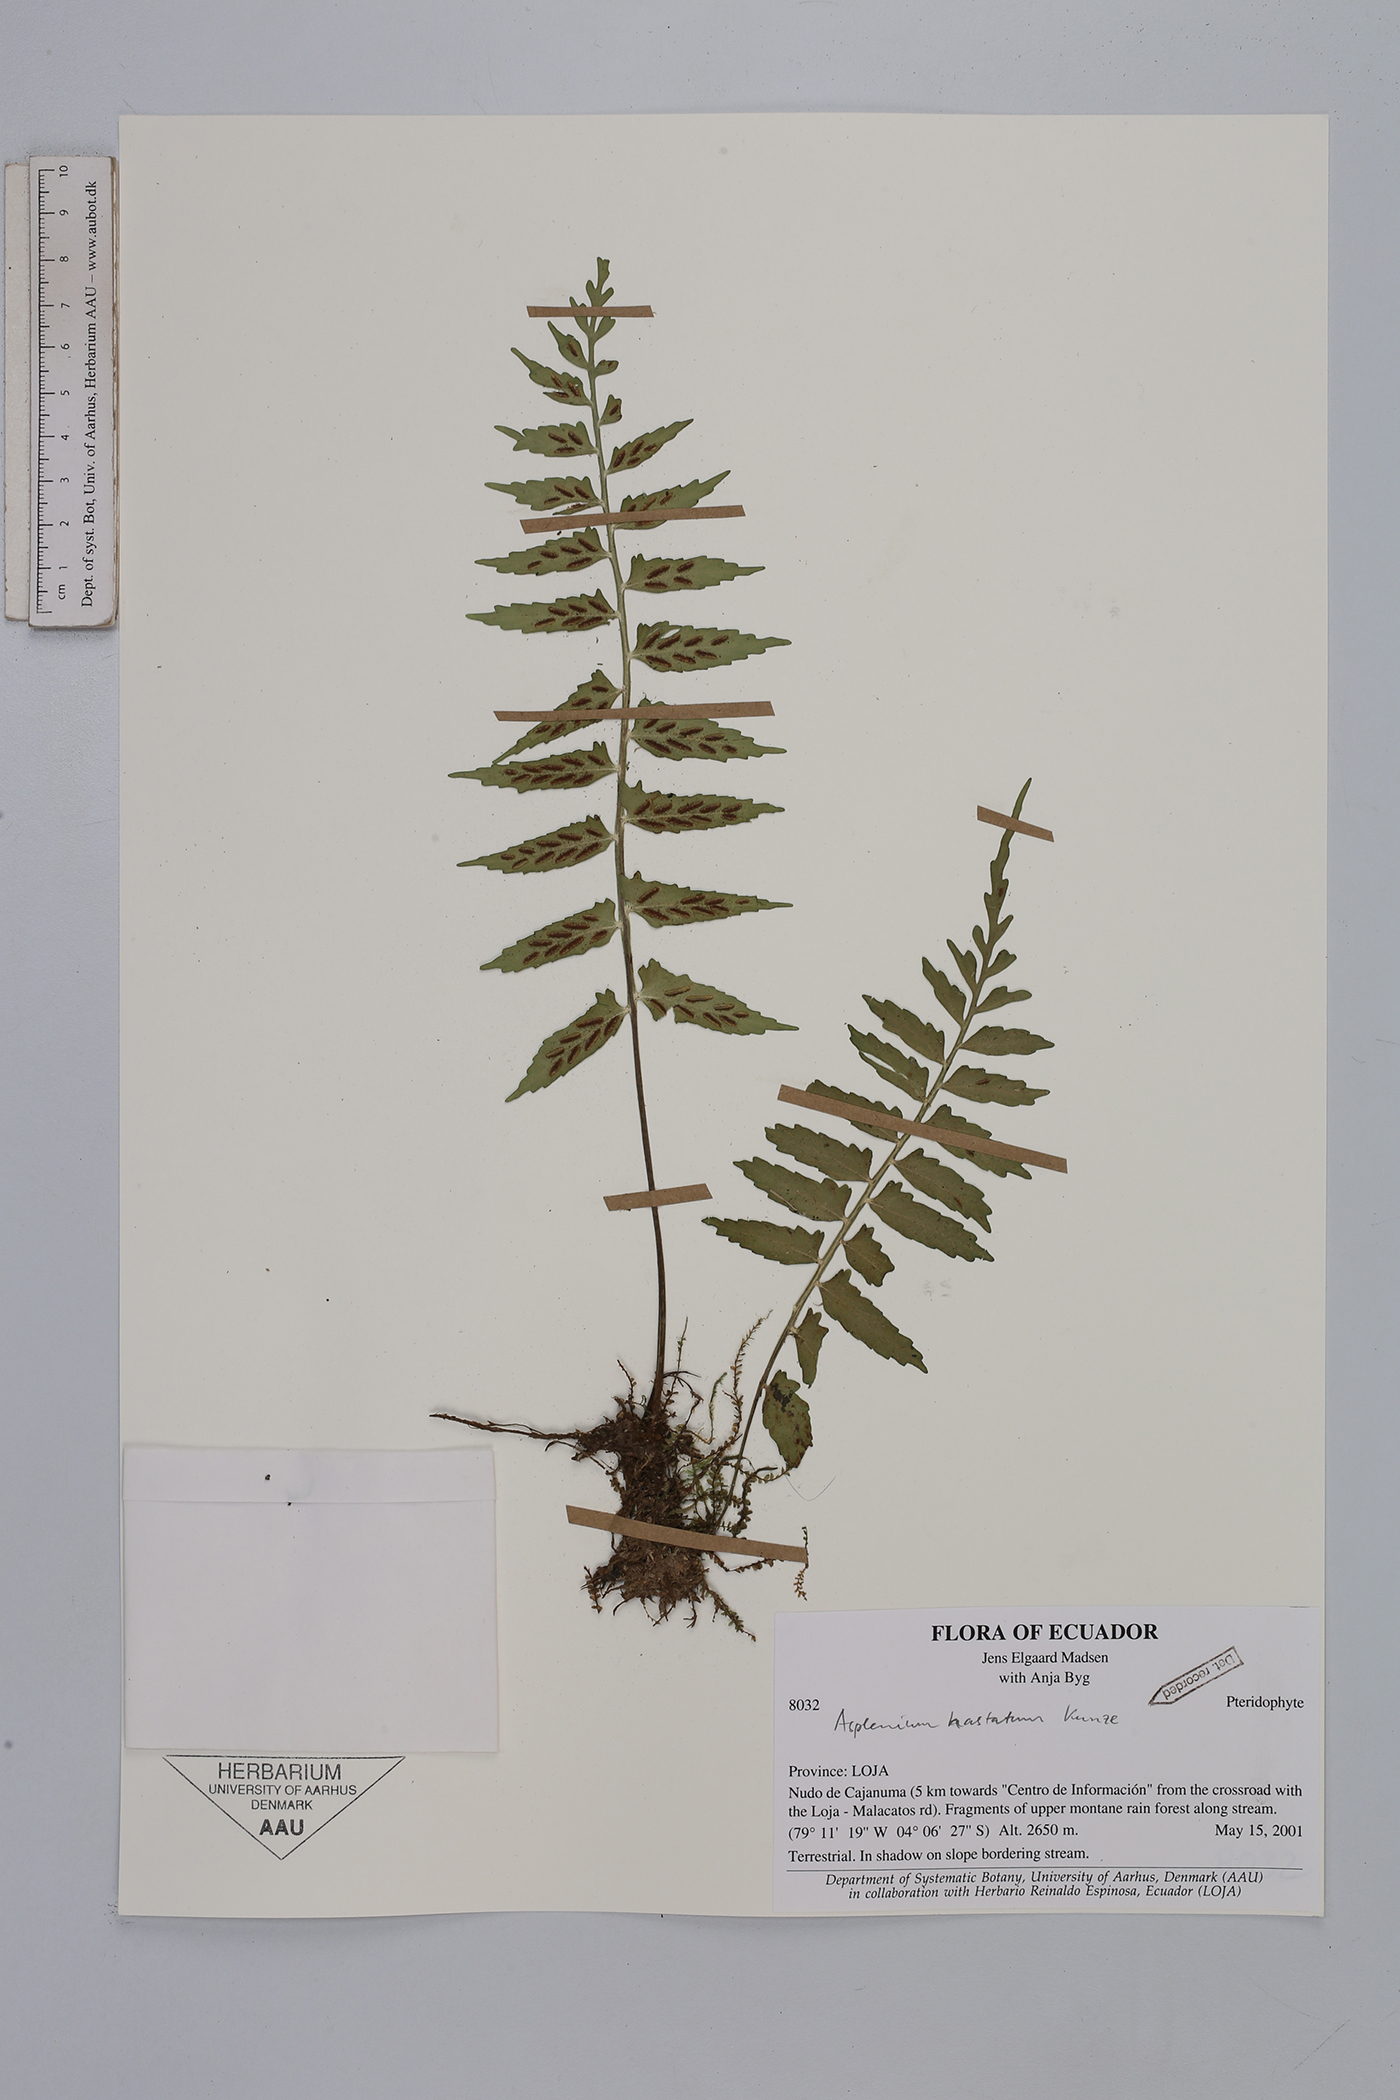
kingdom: Plantae
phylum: Tracheophyta
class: Polypodiopsida
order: Polypodiales
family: Aspleniaceae
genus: Asplenium
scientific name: Asplenium hastatum
